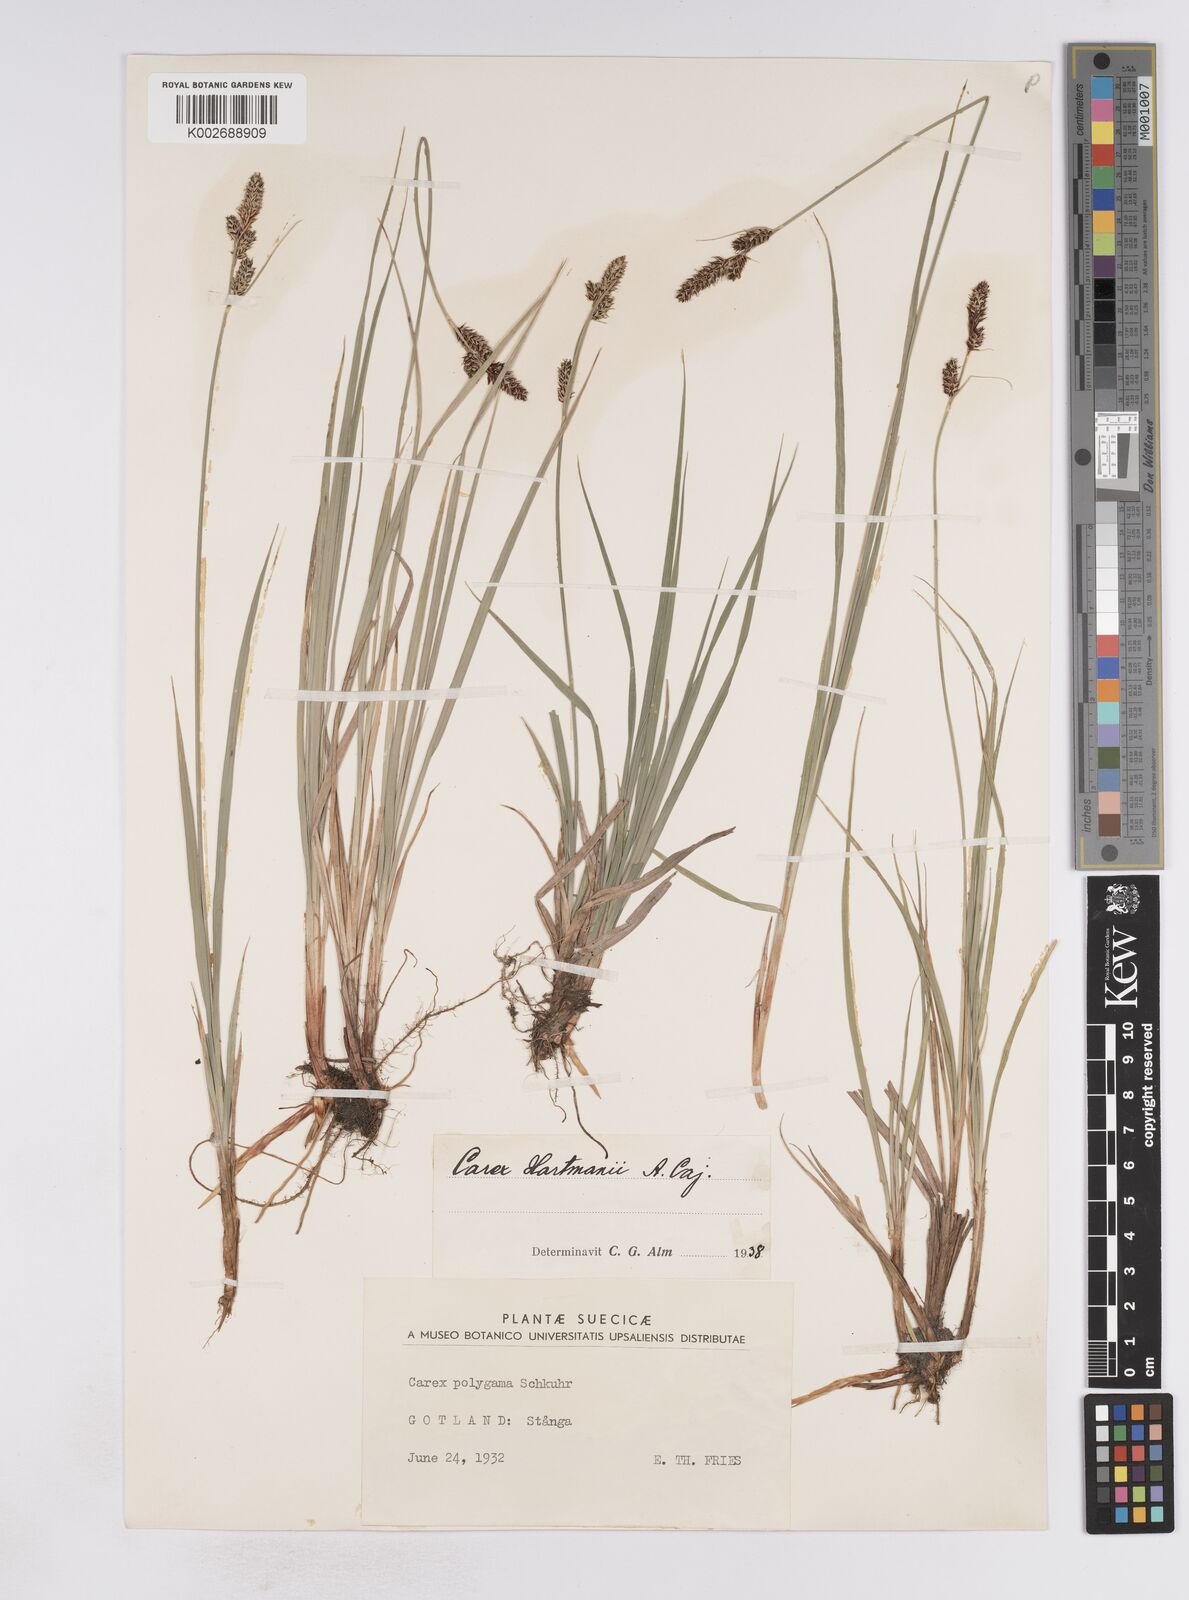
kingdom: Plantae
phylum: Tracheophyta
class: Liliopsida
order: Poales
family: Cyperaceae
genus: Carex
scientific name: Carex hartmaniorum
